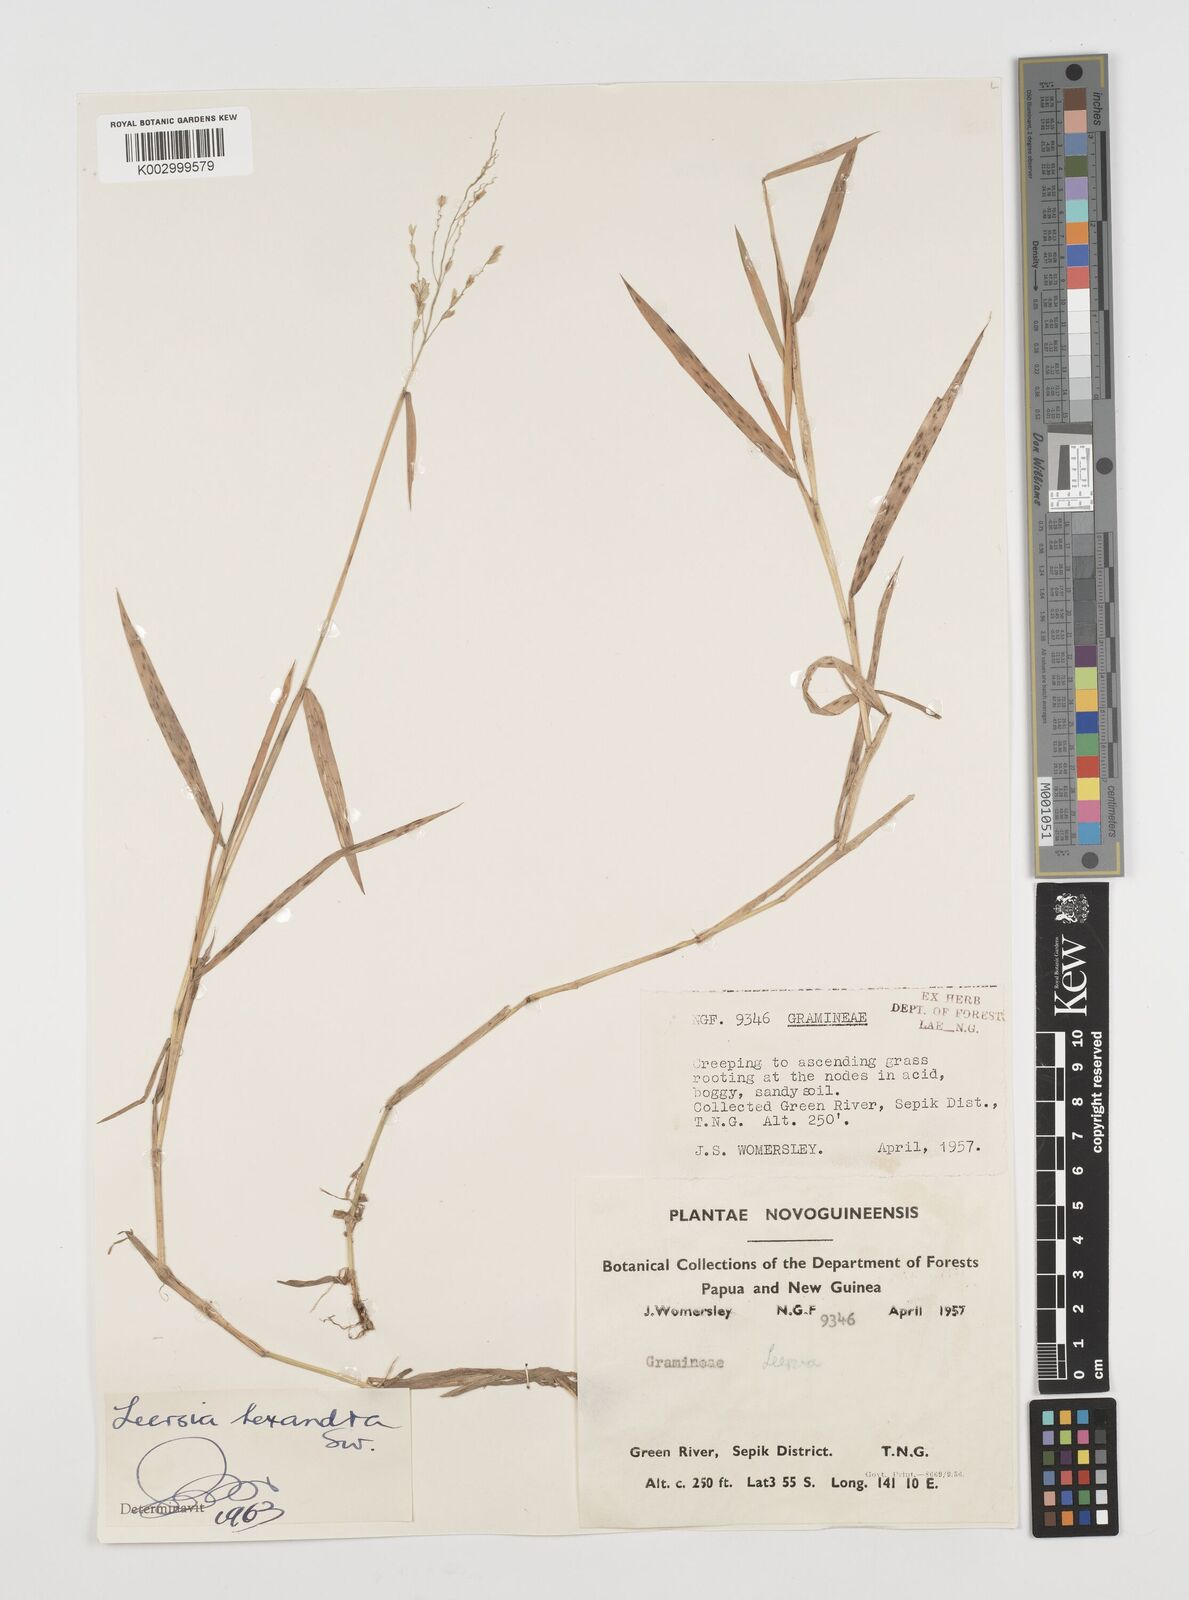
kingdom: Plantae
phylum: Tracheophyta
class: Liliopsida
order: Poales
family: Poaceae
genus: Leersia
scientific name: Leersia hexandra
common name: Southern cut grass
